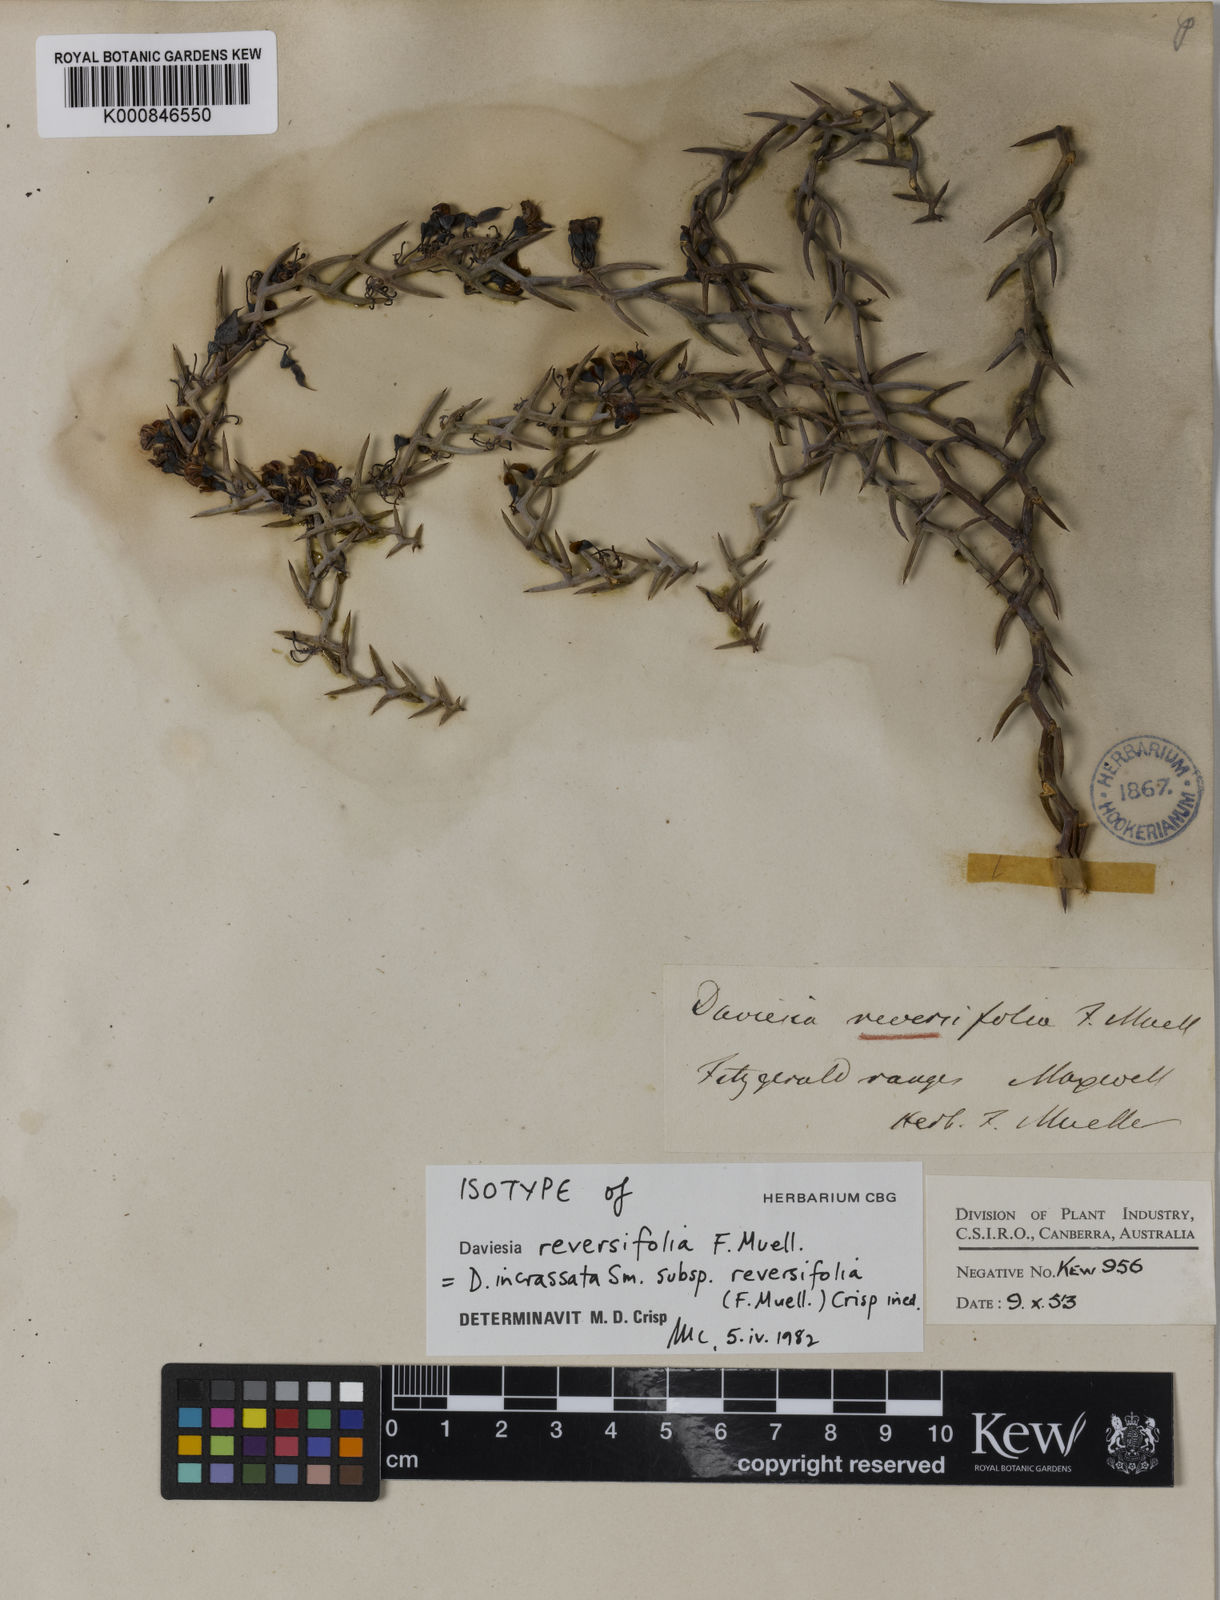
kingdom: Plantae
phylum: Tracheophyta
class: Magnoliopsida
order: Fabales
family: Fabaceae
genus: Daviesia
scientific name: Daviesia incrassata
